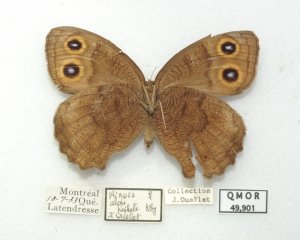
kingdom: Animalia
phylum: Arthropoda
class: Insecta
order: Lepidoptera
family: Nymphalidae
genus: Cercyonis
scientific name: Cercyonis pegala
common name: Common Wood-Nymph
